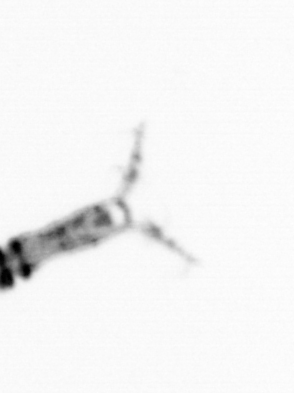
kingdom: Animalia
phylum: Arthropoda
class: Copepoda
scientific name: Copepoda
